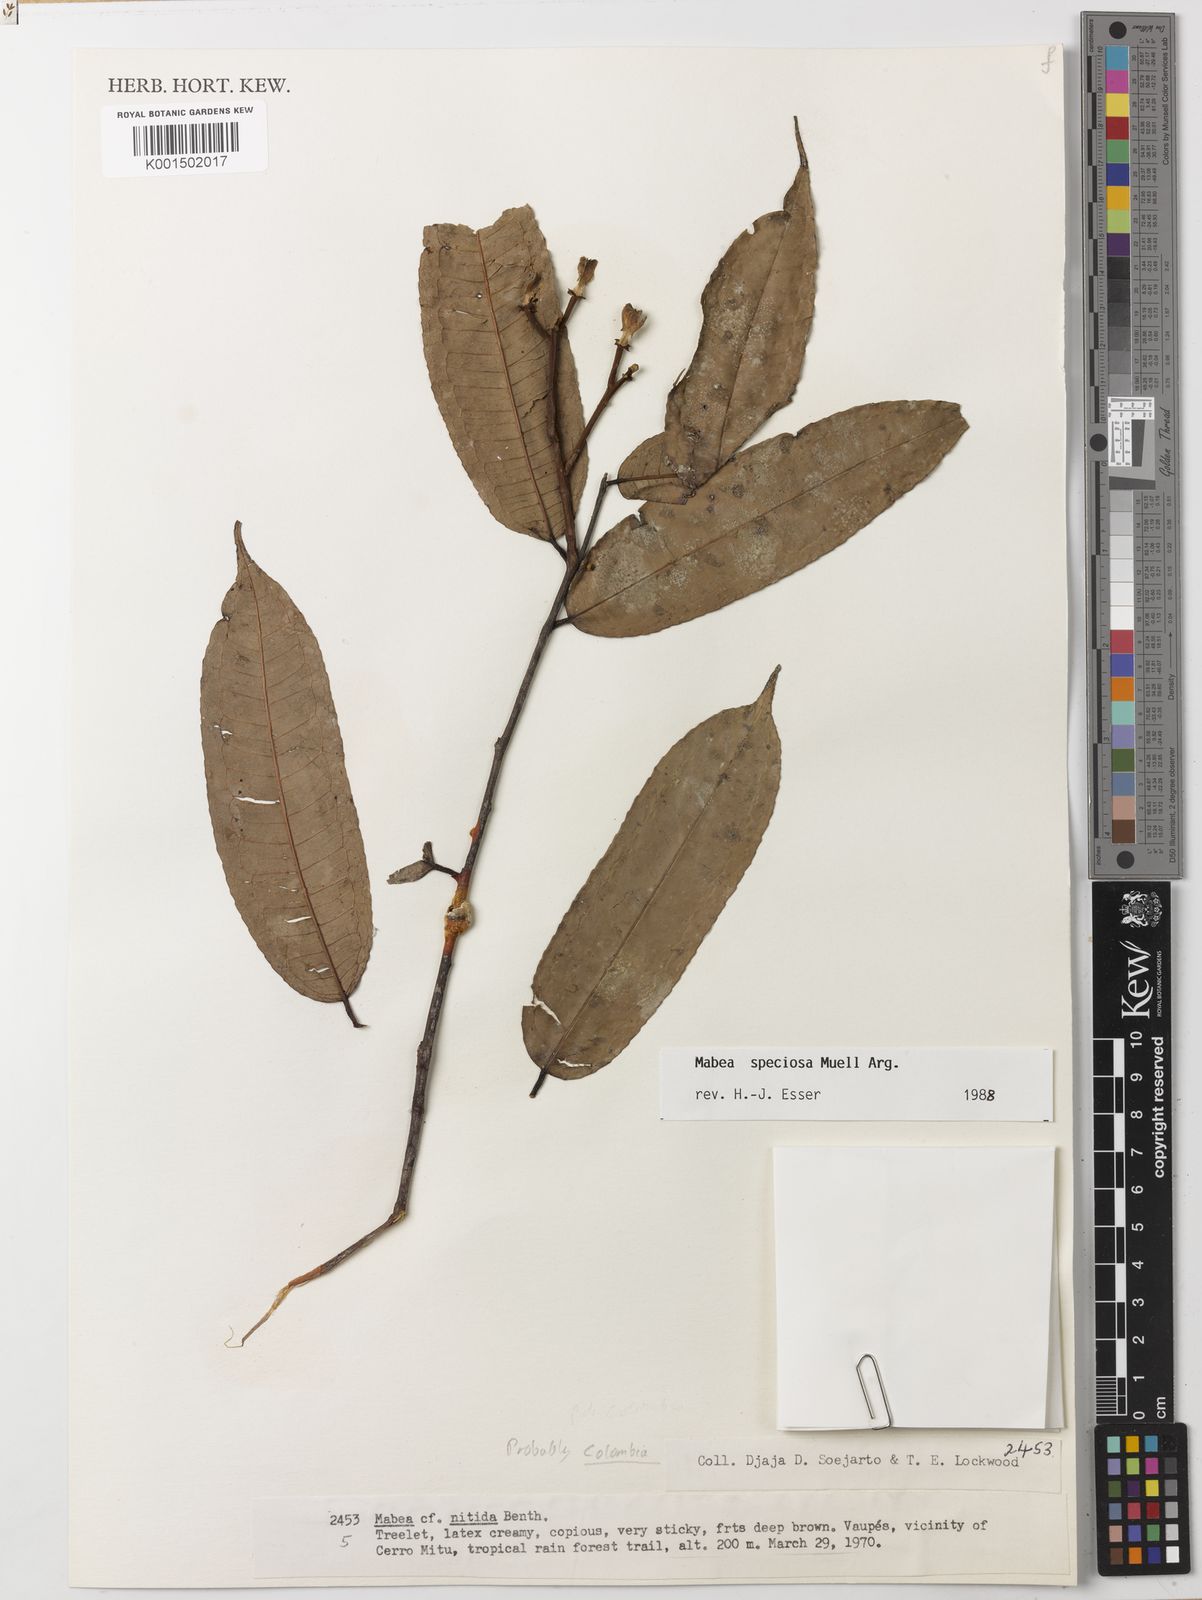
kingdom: Plantae
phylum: Tracheophyta
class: Magnoliopsida
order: Malpighiales
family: Euphorbiaceae
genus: Mabea
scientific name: Mabea speciosa
